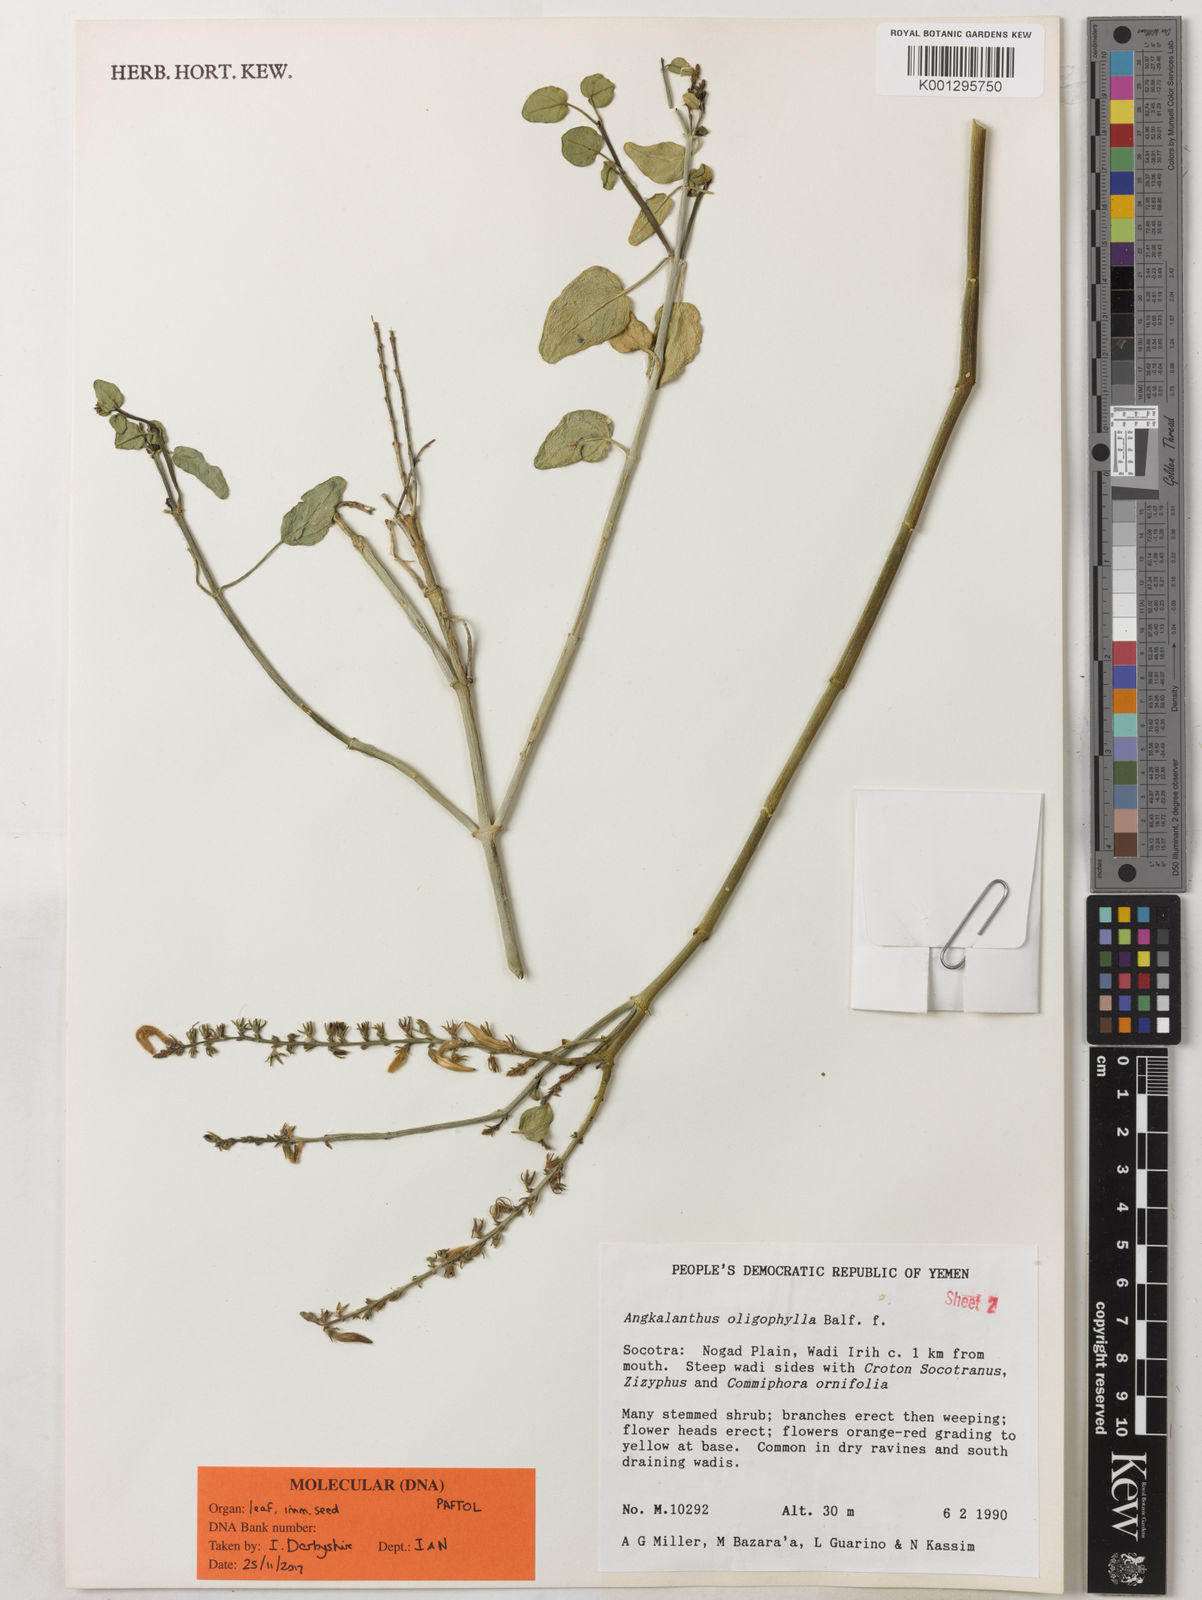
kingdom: Plantae
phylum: Tracheophyta
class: Magnoliopsida
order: Lamiales
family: Acanthaceae
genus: Angkalanthus
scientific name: Angkalanthus oligophylla
